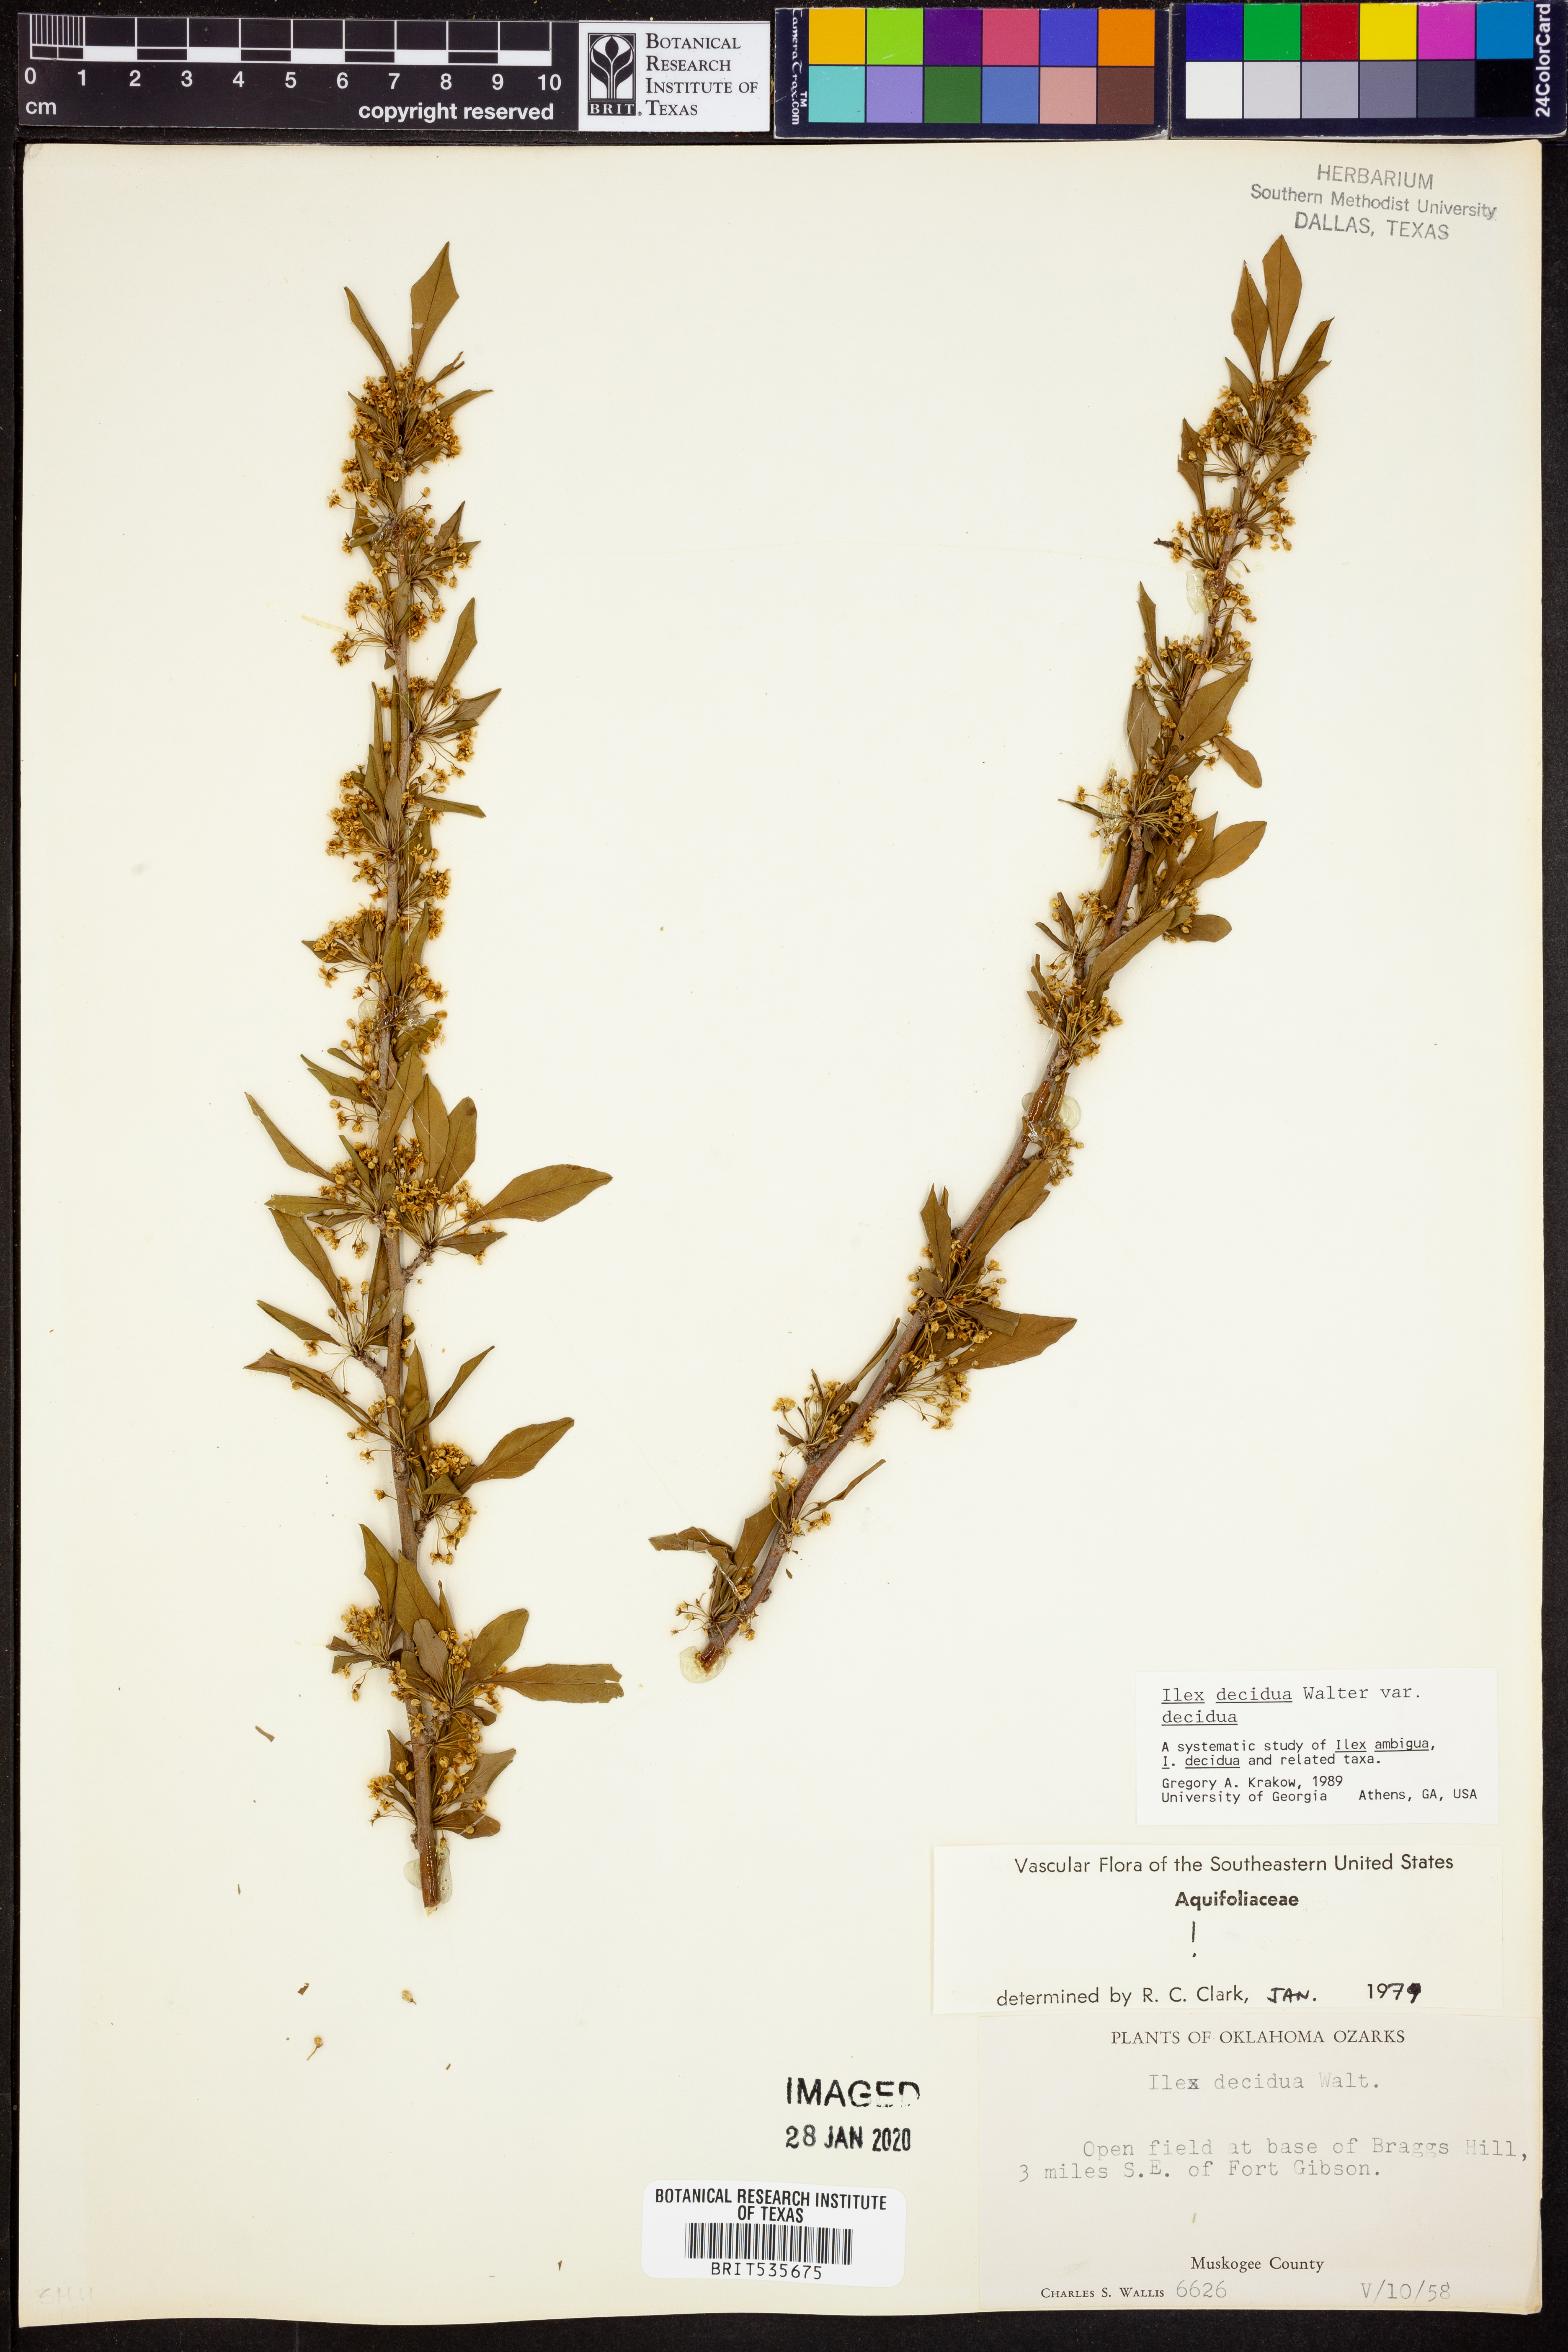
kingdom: Plantae
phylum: Tracheophyta
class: Magnoliopsida
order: Aquifoliales
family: Aquifoliaceae
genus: Ilex
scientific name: Ilex decidua
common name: Possum-haw
